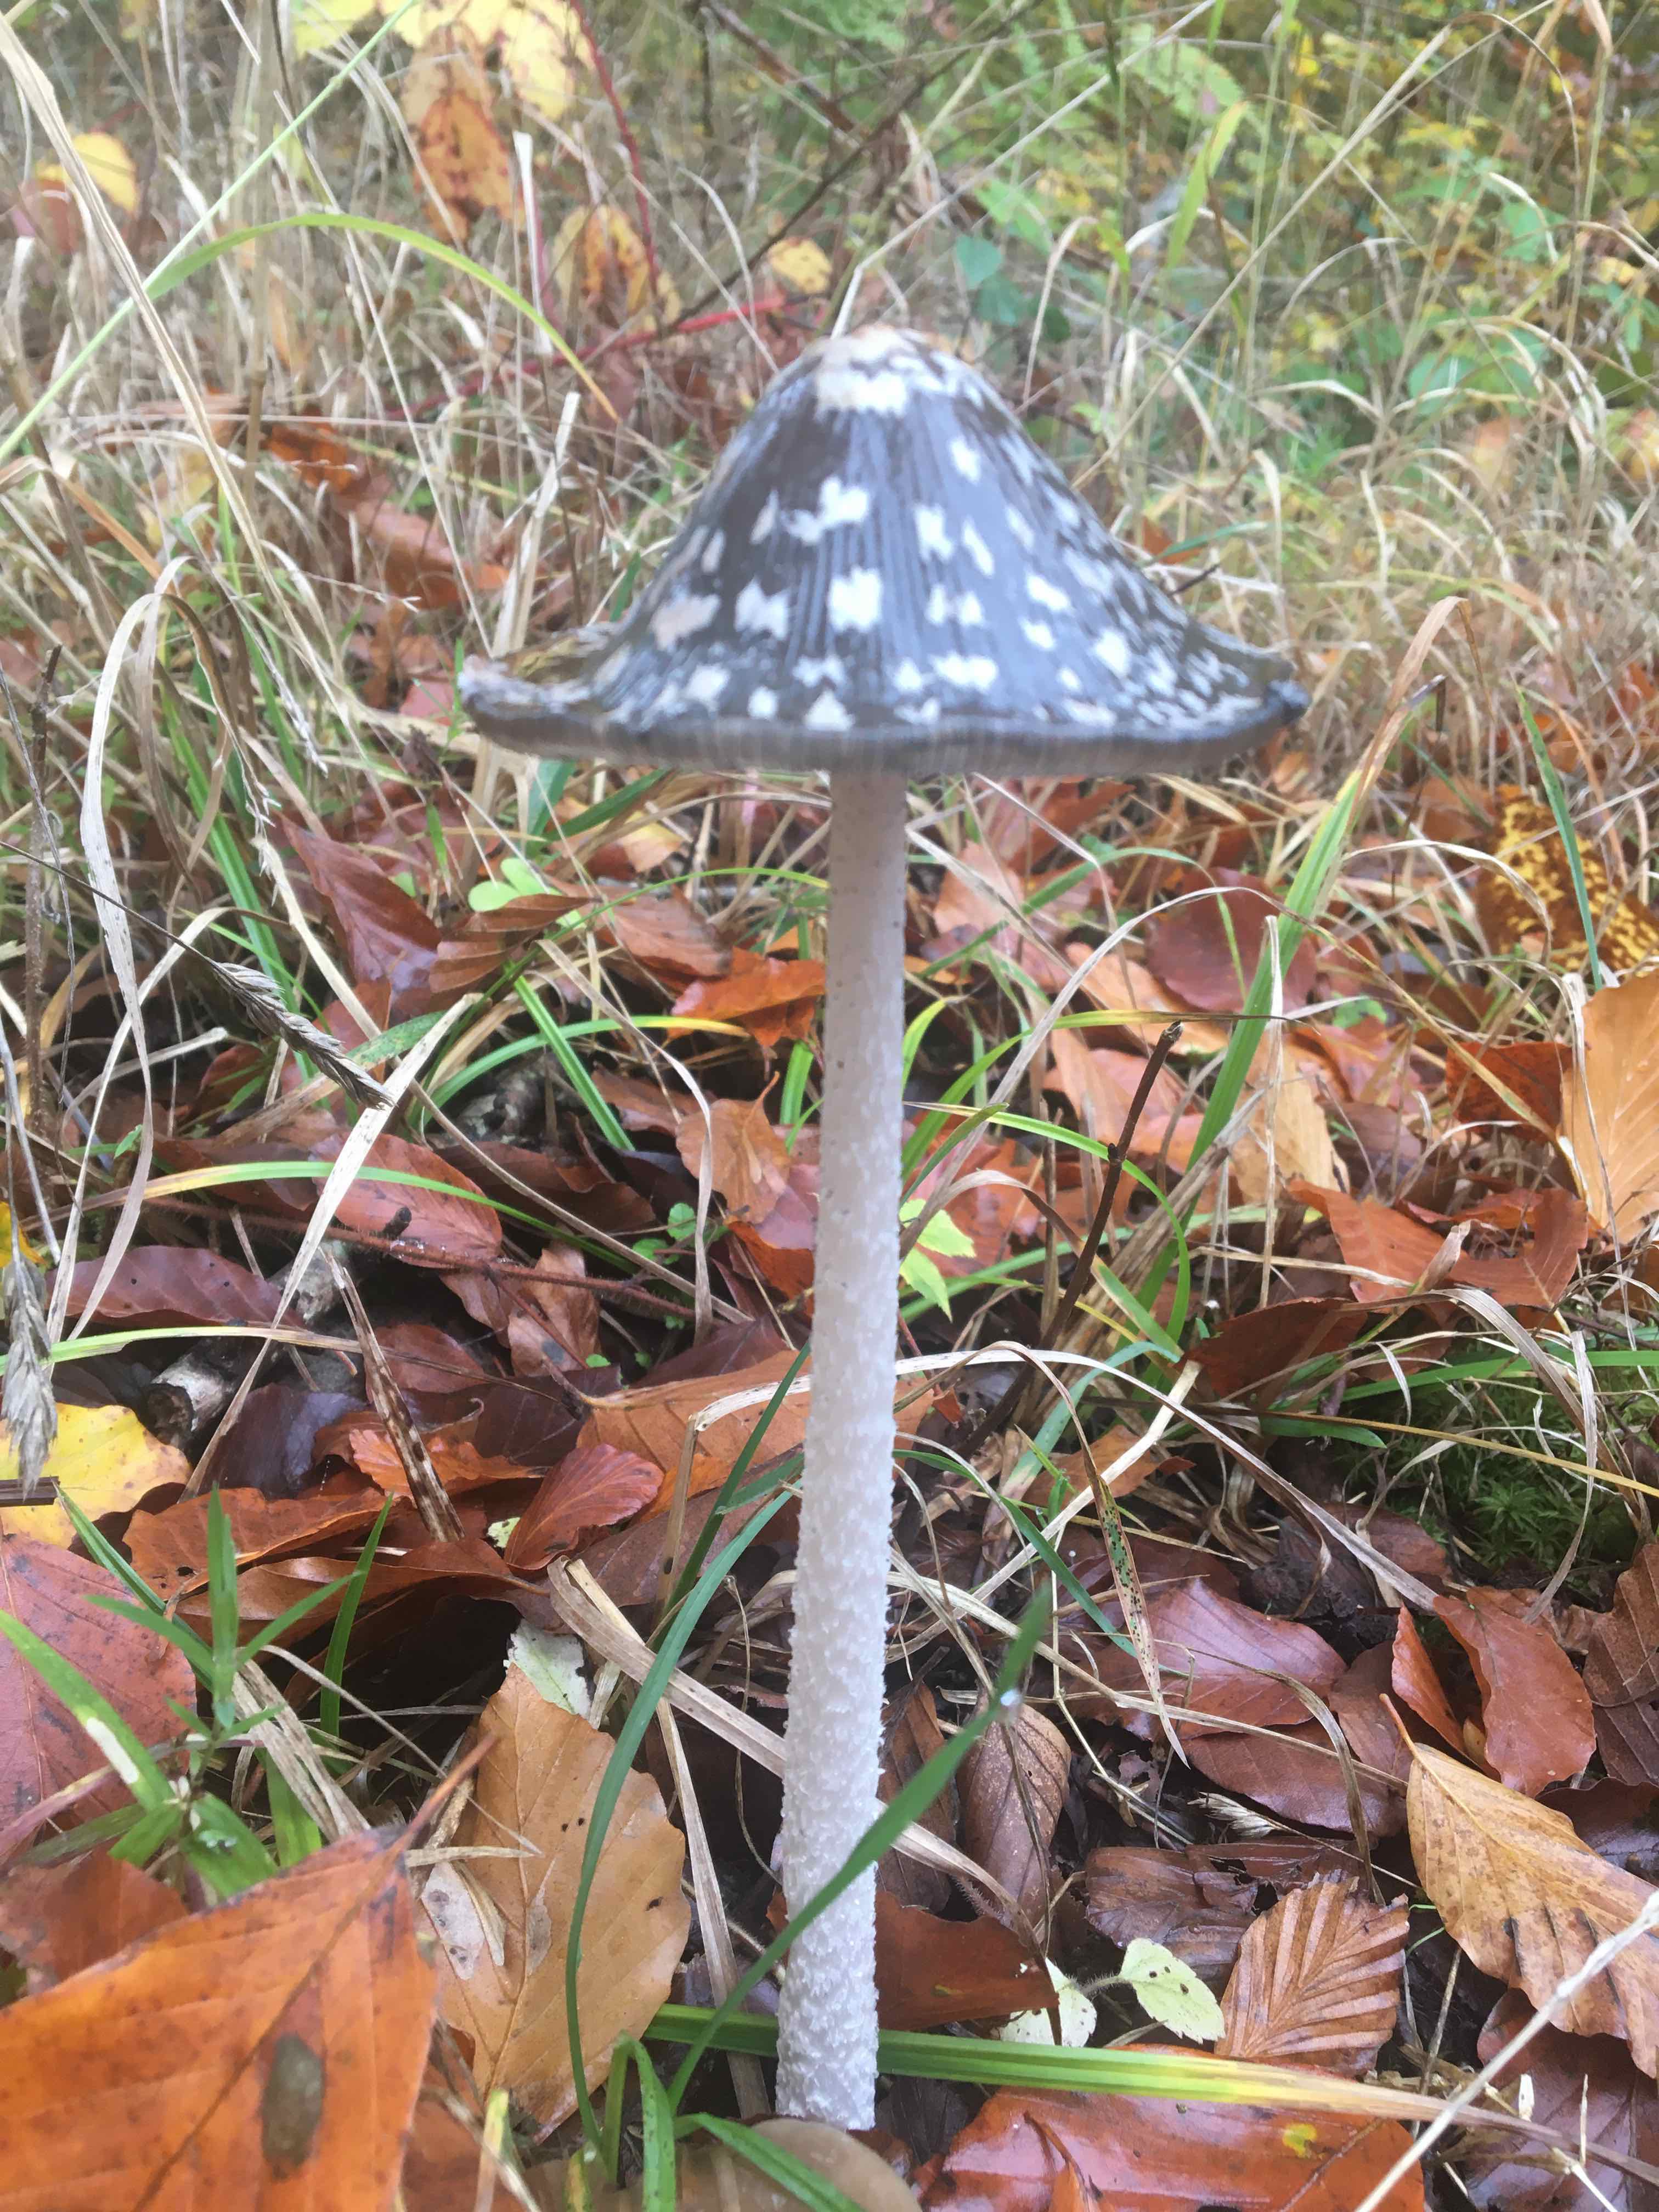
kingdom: Fungi
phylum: Basidiomycota
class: Agaricomycetes
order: Agaricales
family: Psathyrellaceae
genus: Coprinopsis
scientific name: Coprinopsis picacea
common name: skade-blækhat
